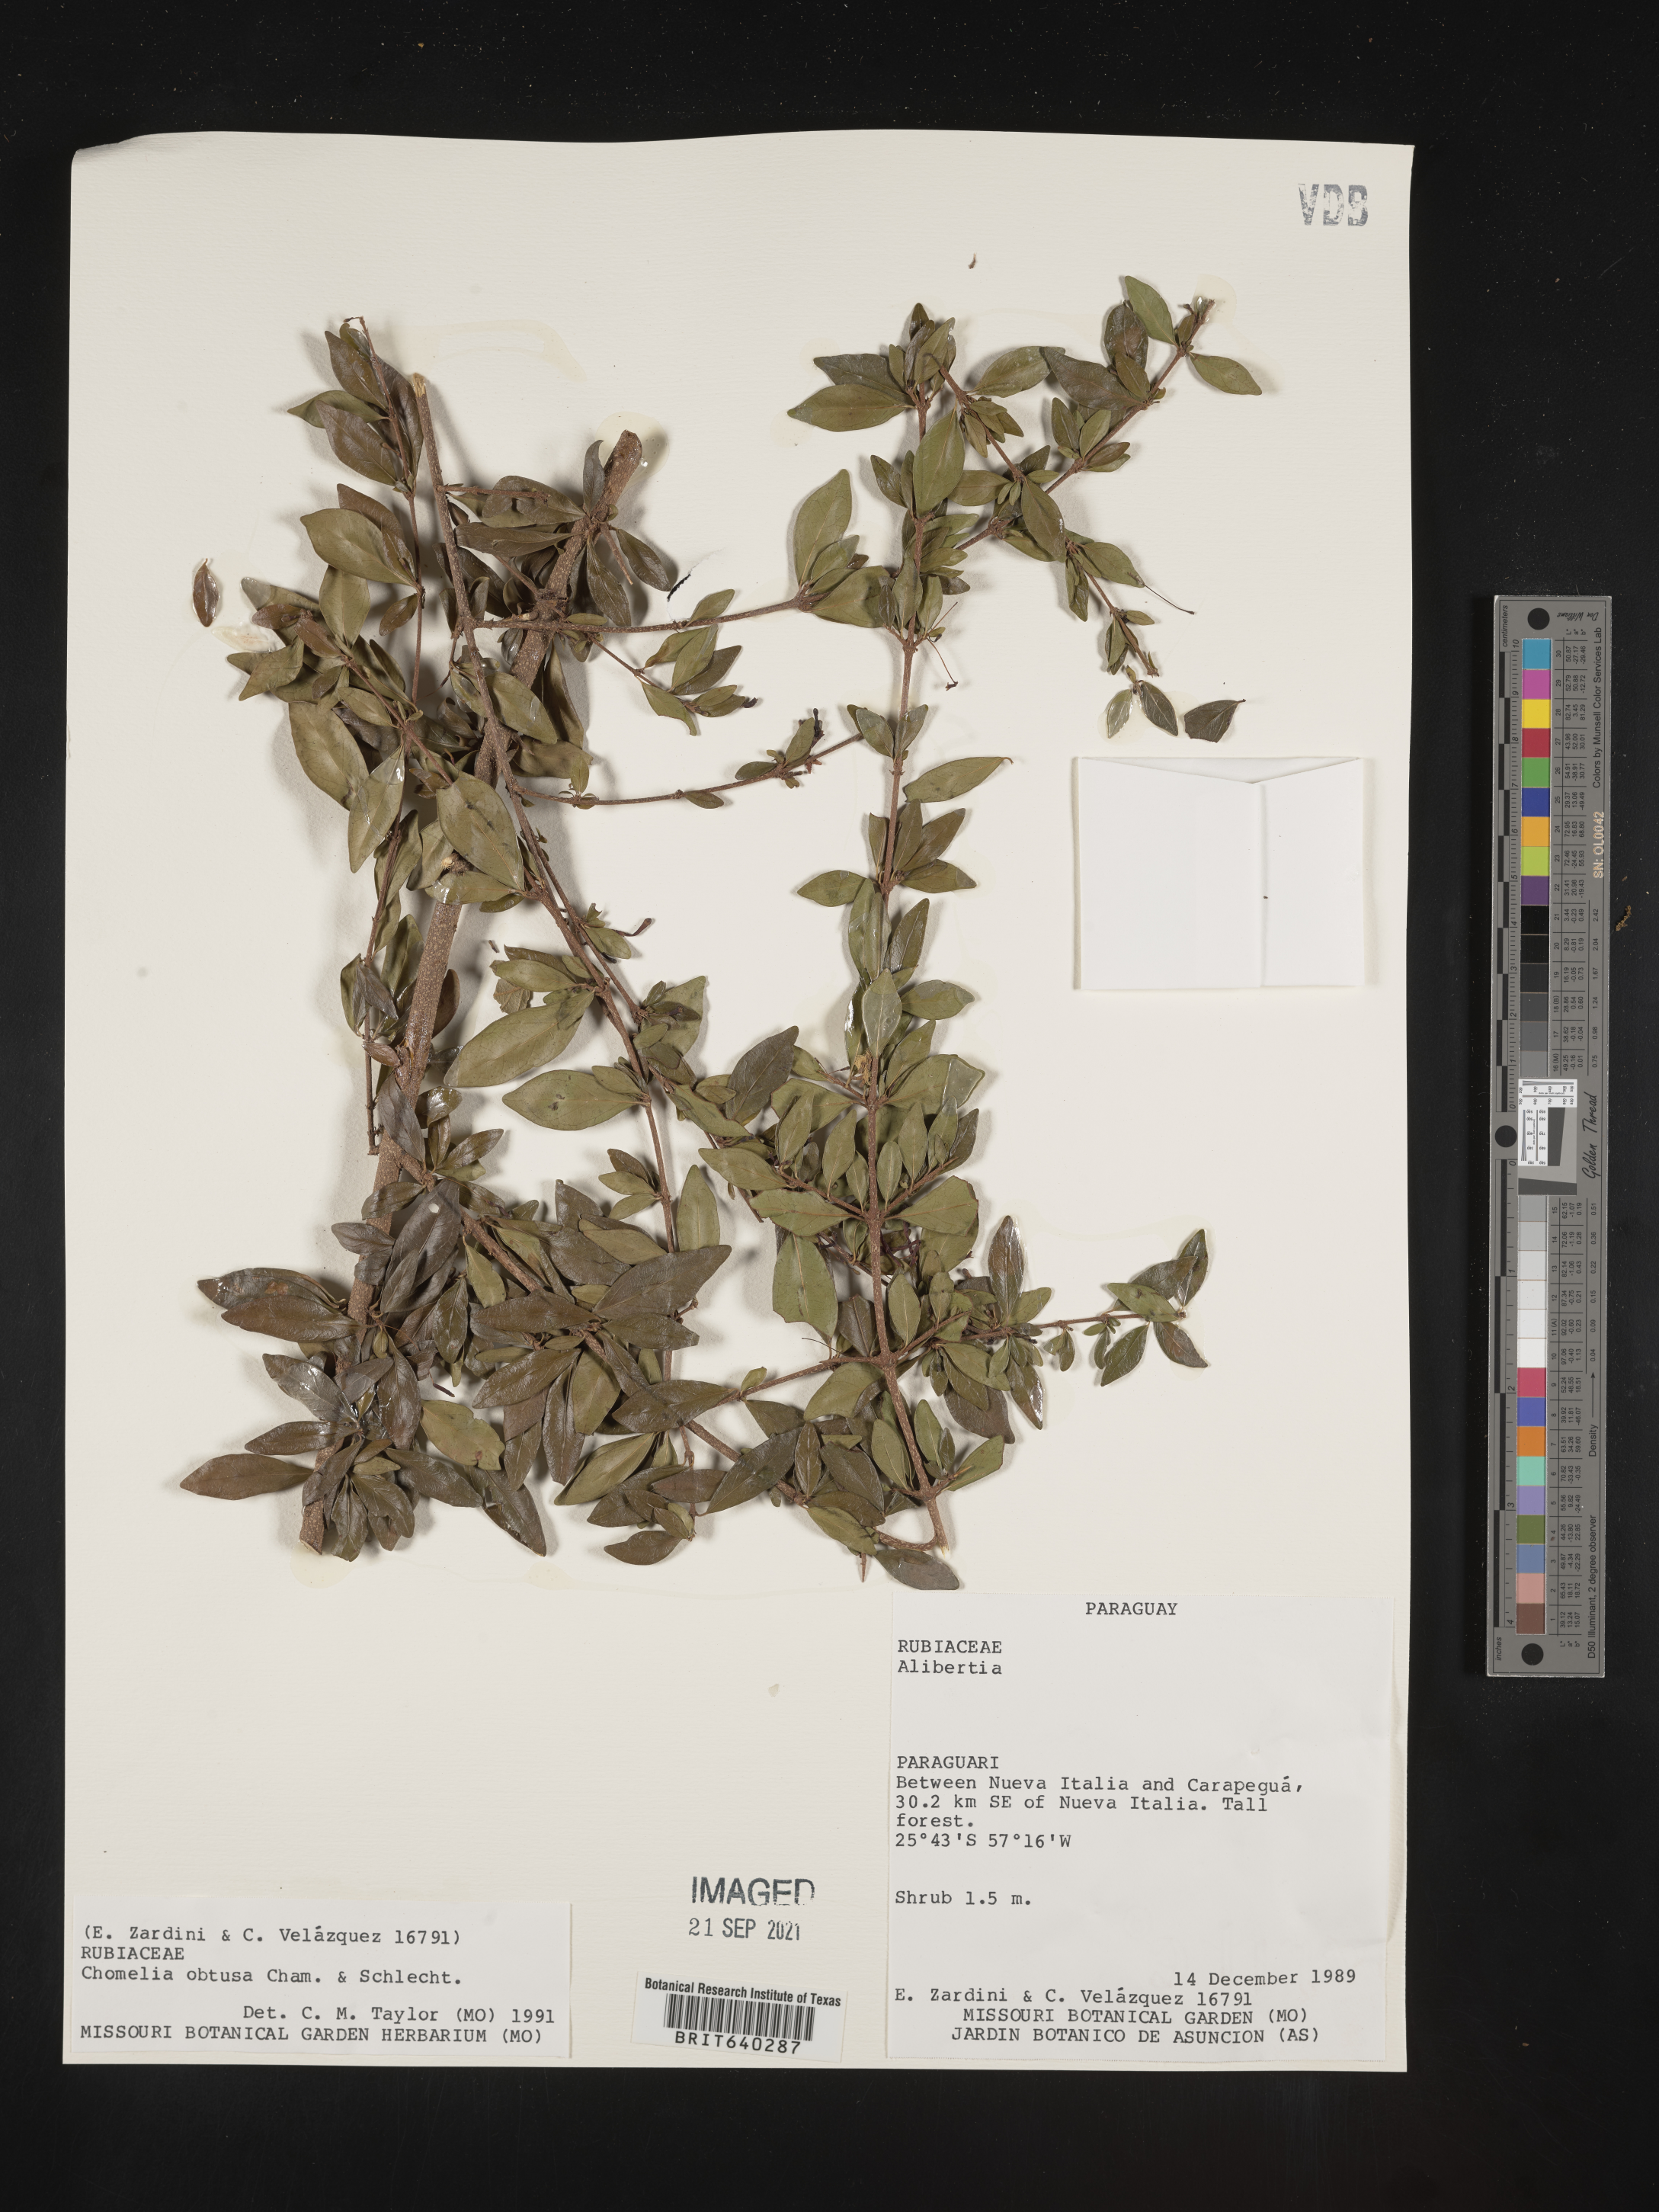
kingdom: Plantae
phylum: Tracheophyta
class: Magnoliopsida
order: Gentianales
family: Rubiaceae
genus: Chomelia
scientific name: Chomelia
